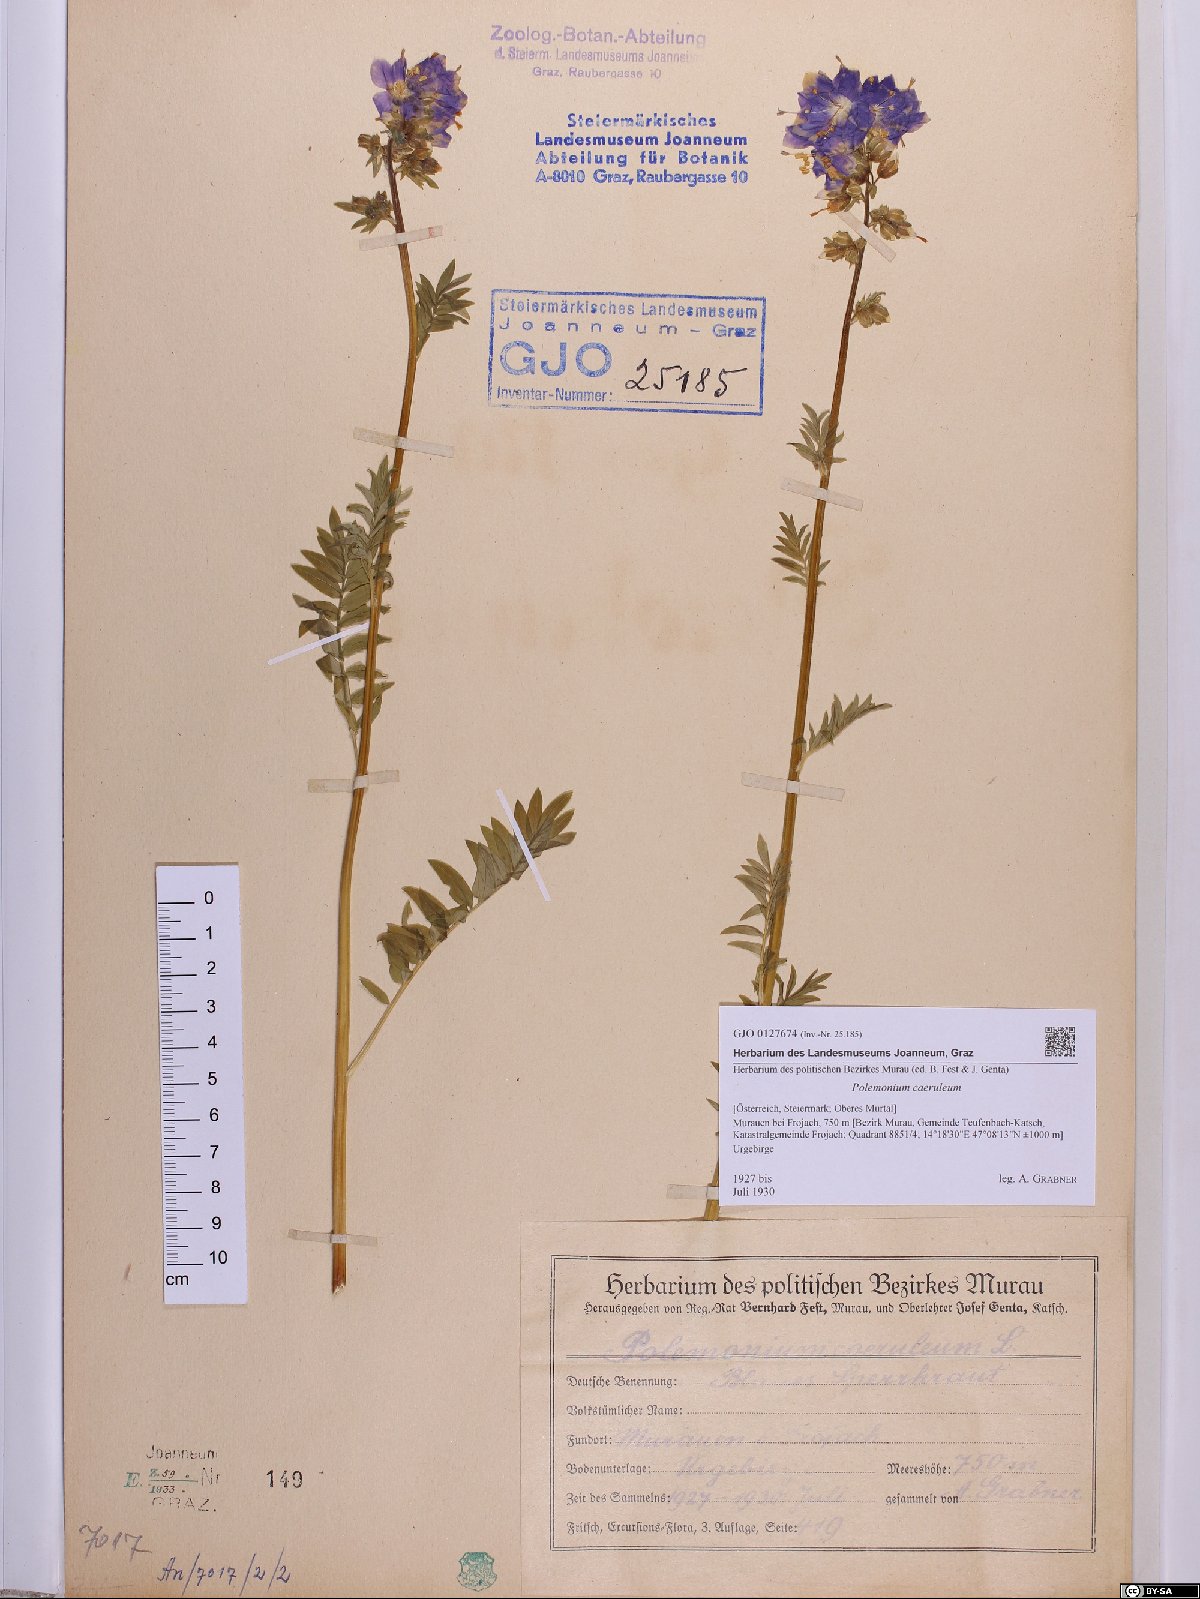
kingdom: Plantae
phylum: Tracheophyta
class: Magnoliopsida
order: Ericales
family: Polemoniaceae
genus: Polemonium
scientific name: Polemonium caeruleum
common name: Jacob's-ladder
